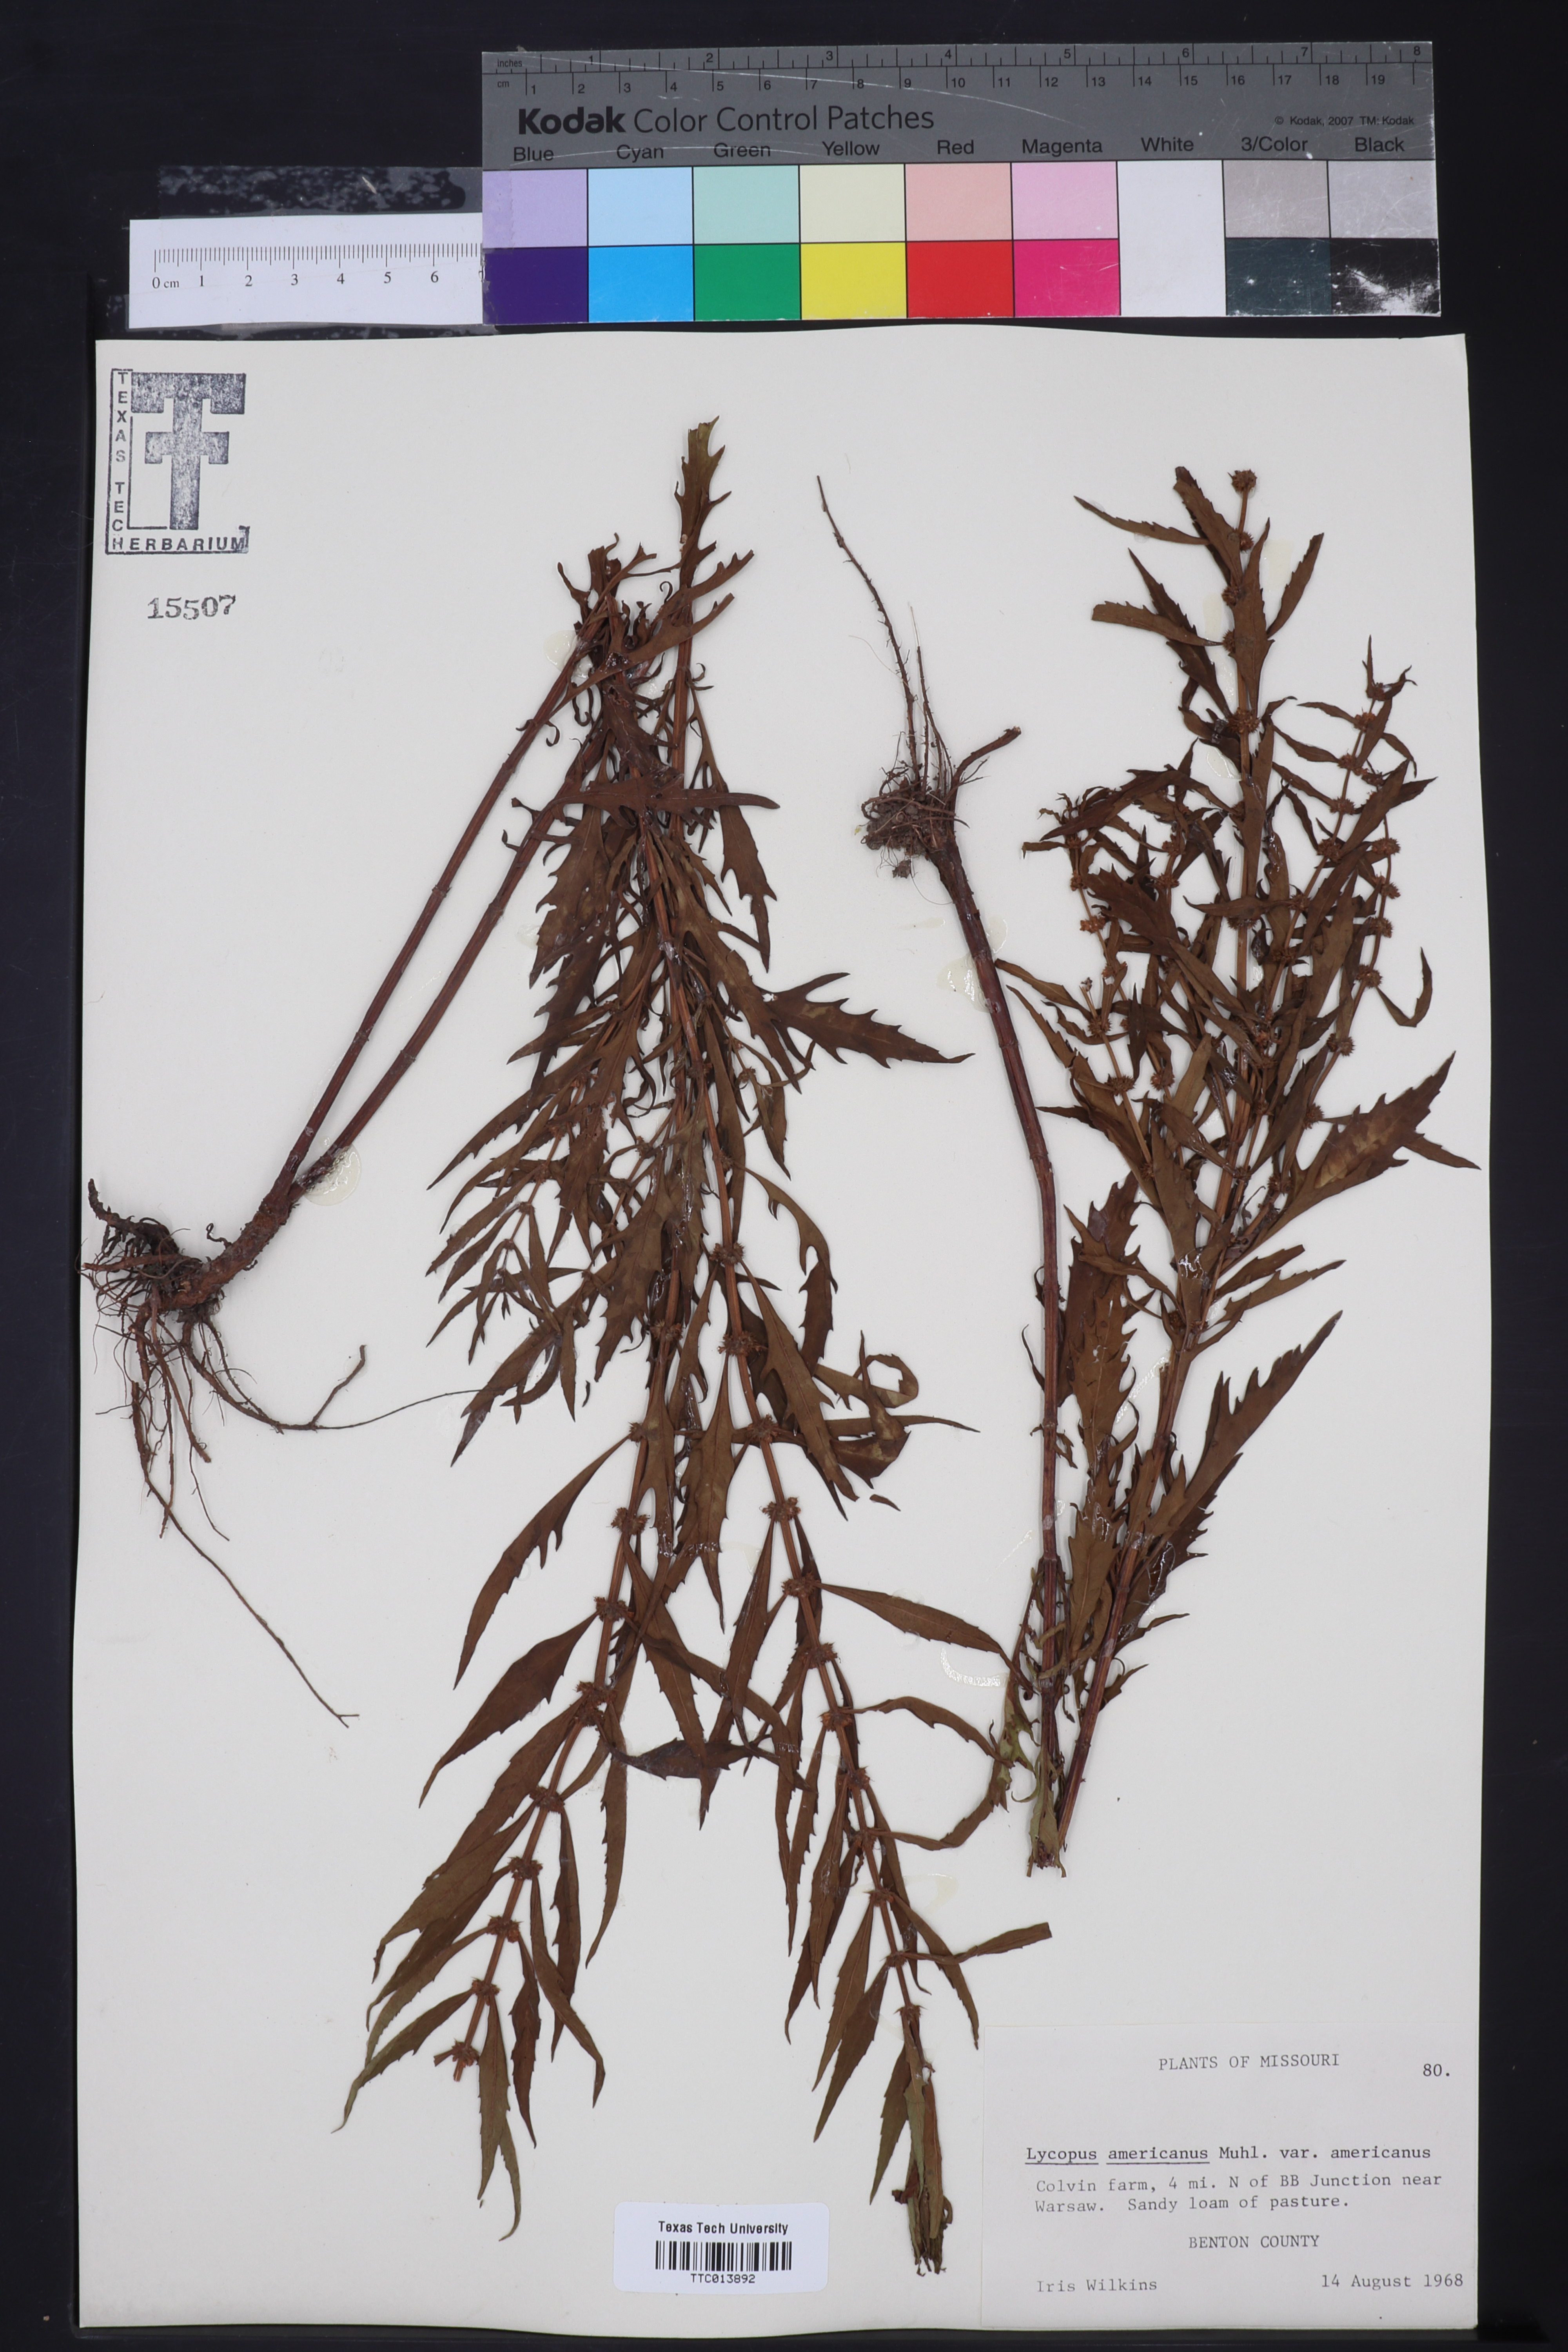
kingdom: Plantae
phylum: Tracheophyta
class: Magnoliopsida
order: Lamiales
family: Lamiaceae
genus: Lycopus
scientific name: Lycopus americanus
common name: American bugleweed
